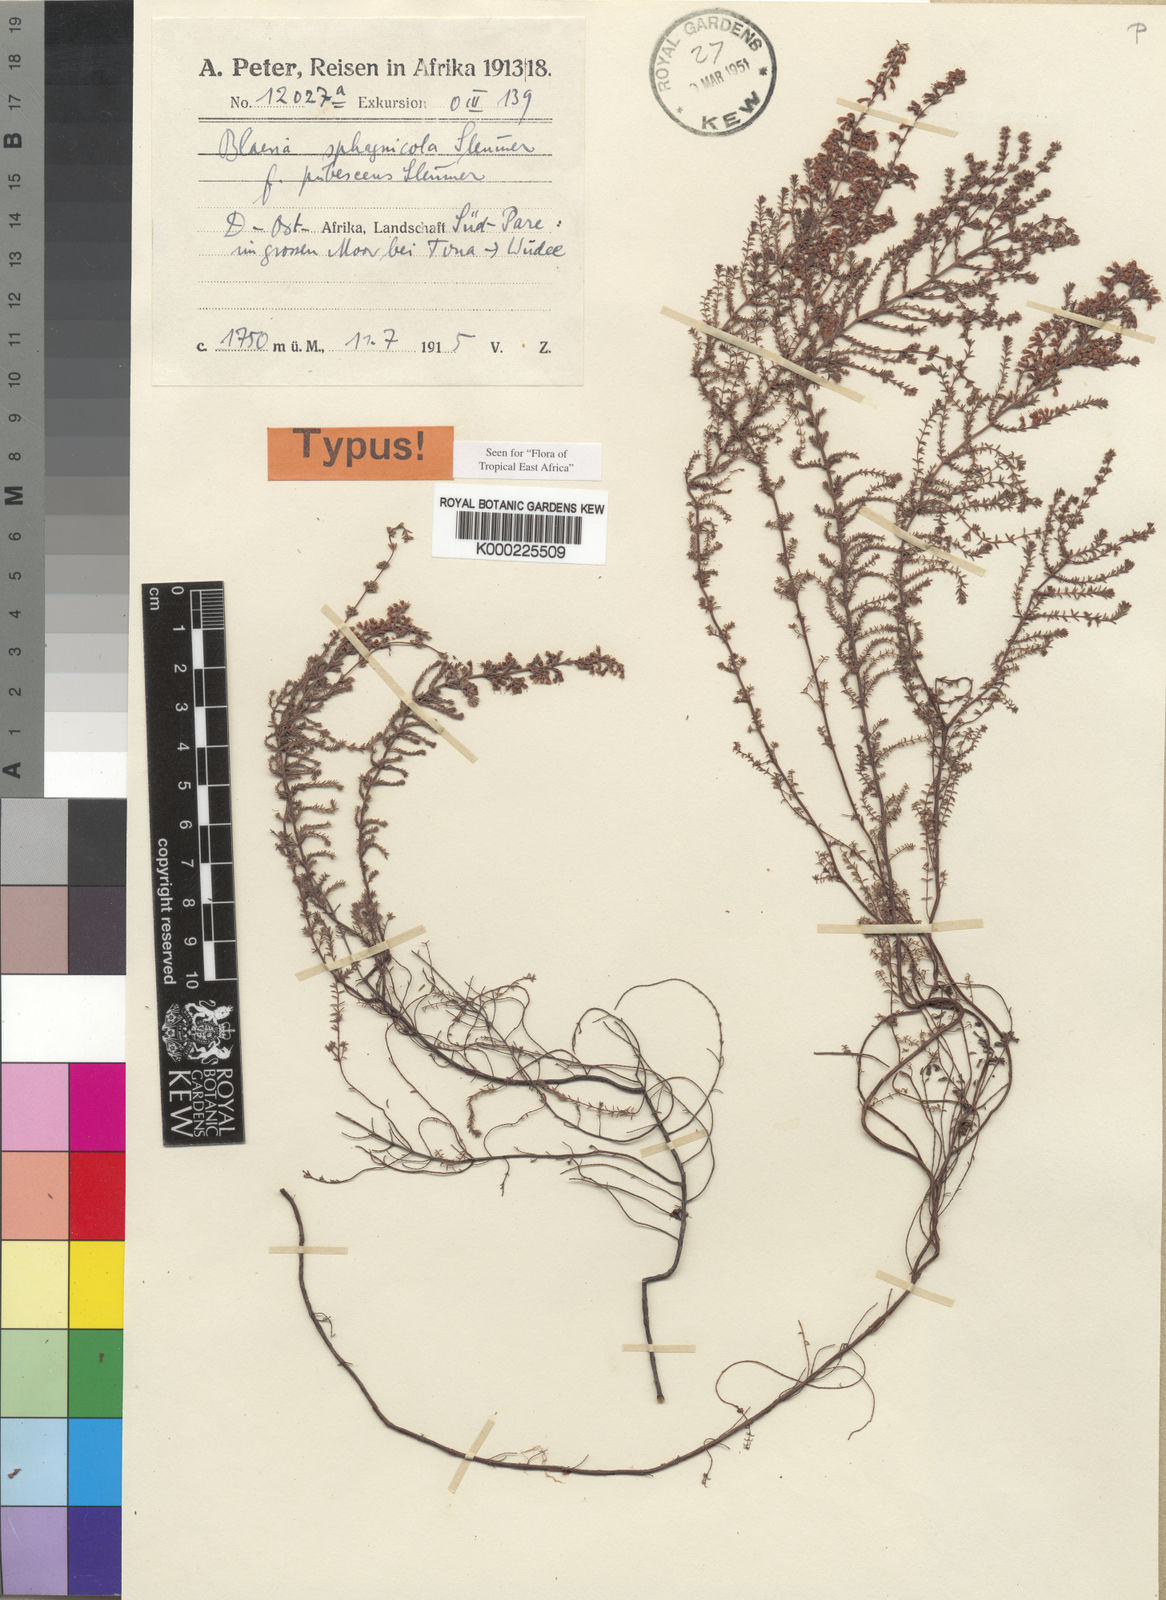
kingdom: Plantae
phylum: Tracheophyta
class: Magnoliopsida
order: Ericales
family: Ericaceae
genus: Erica
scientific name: Erica silvatica
